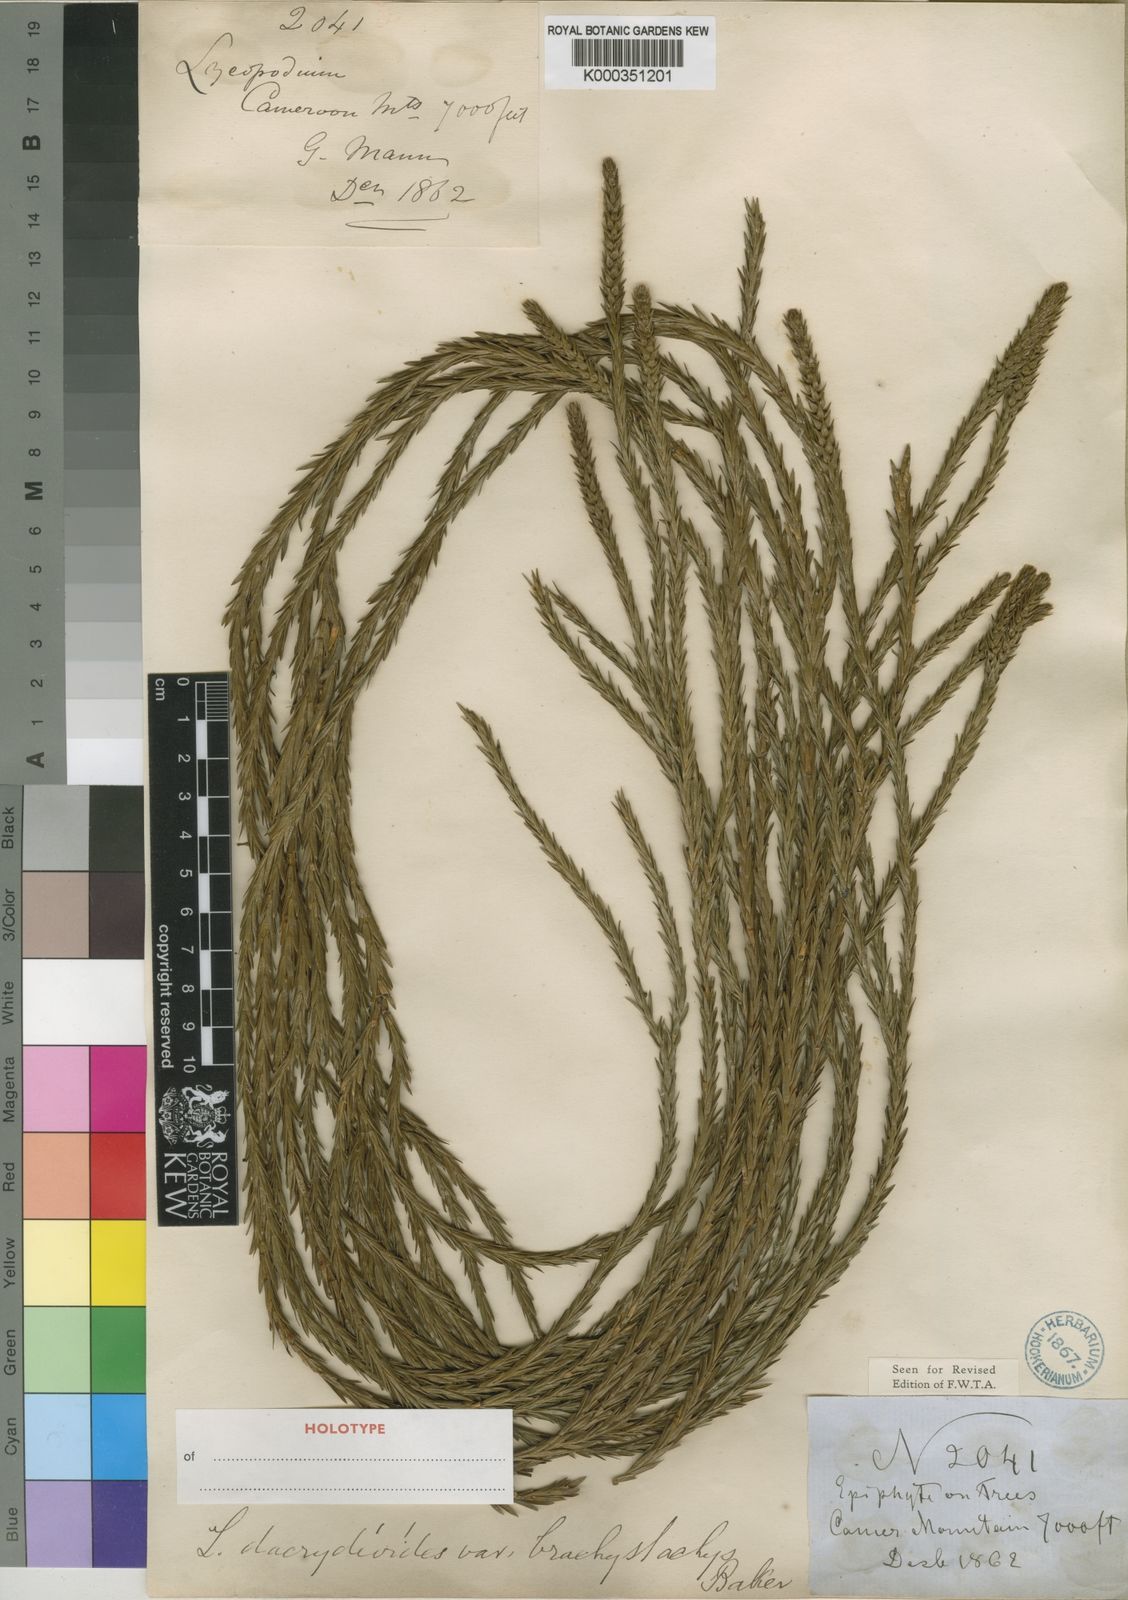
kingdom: Plantae
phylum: Tracheophyta
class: Lycopodiopsida
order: Lycopodiales
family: Lycopodiaceae
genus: Phlegmariurus
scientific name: Phlegmariurus brachystachys
